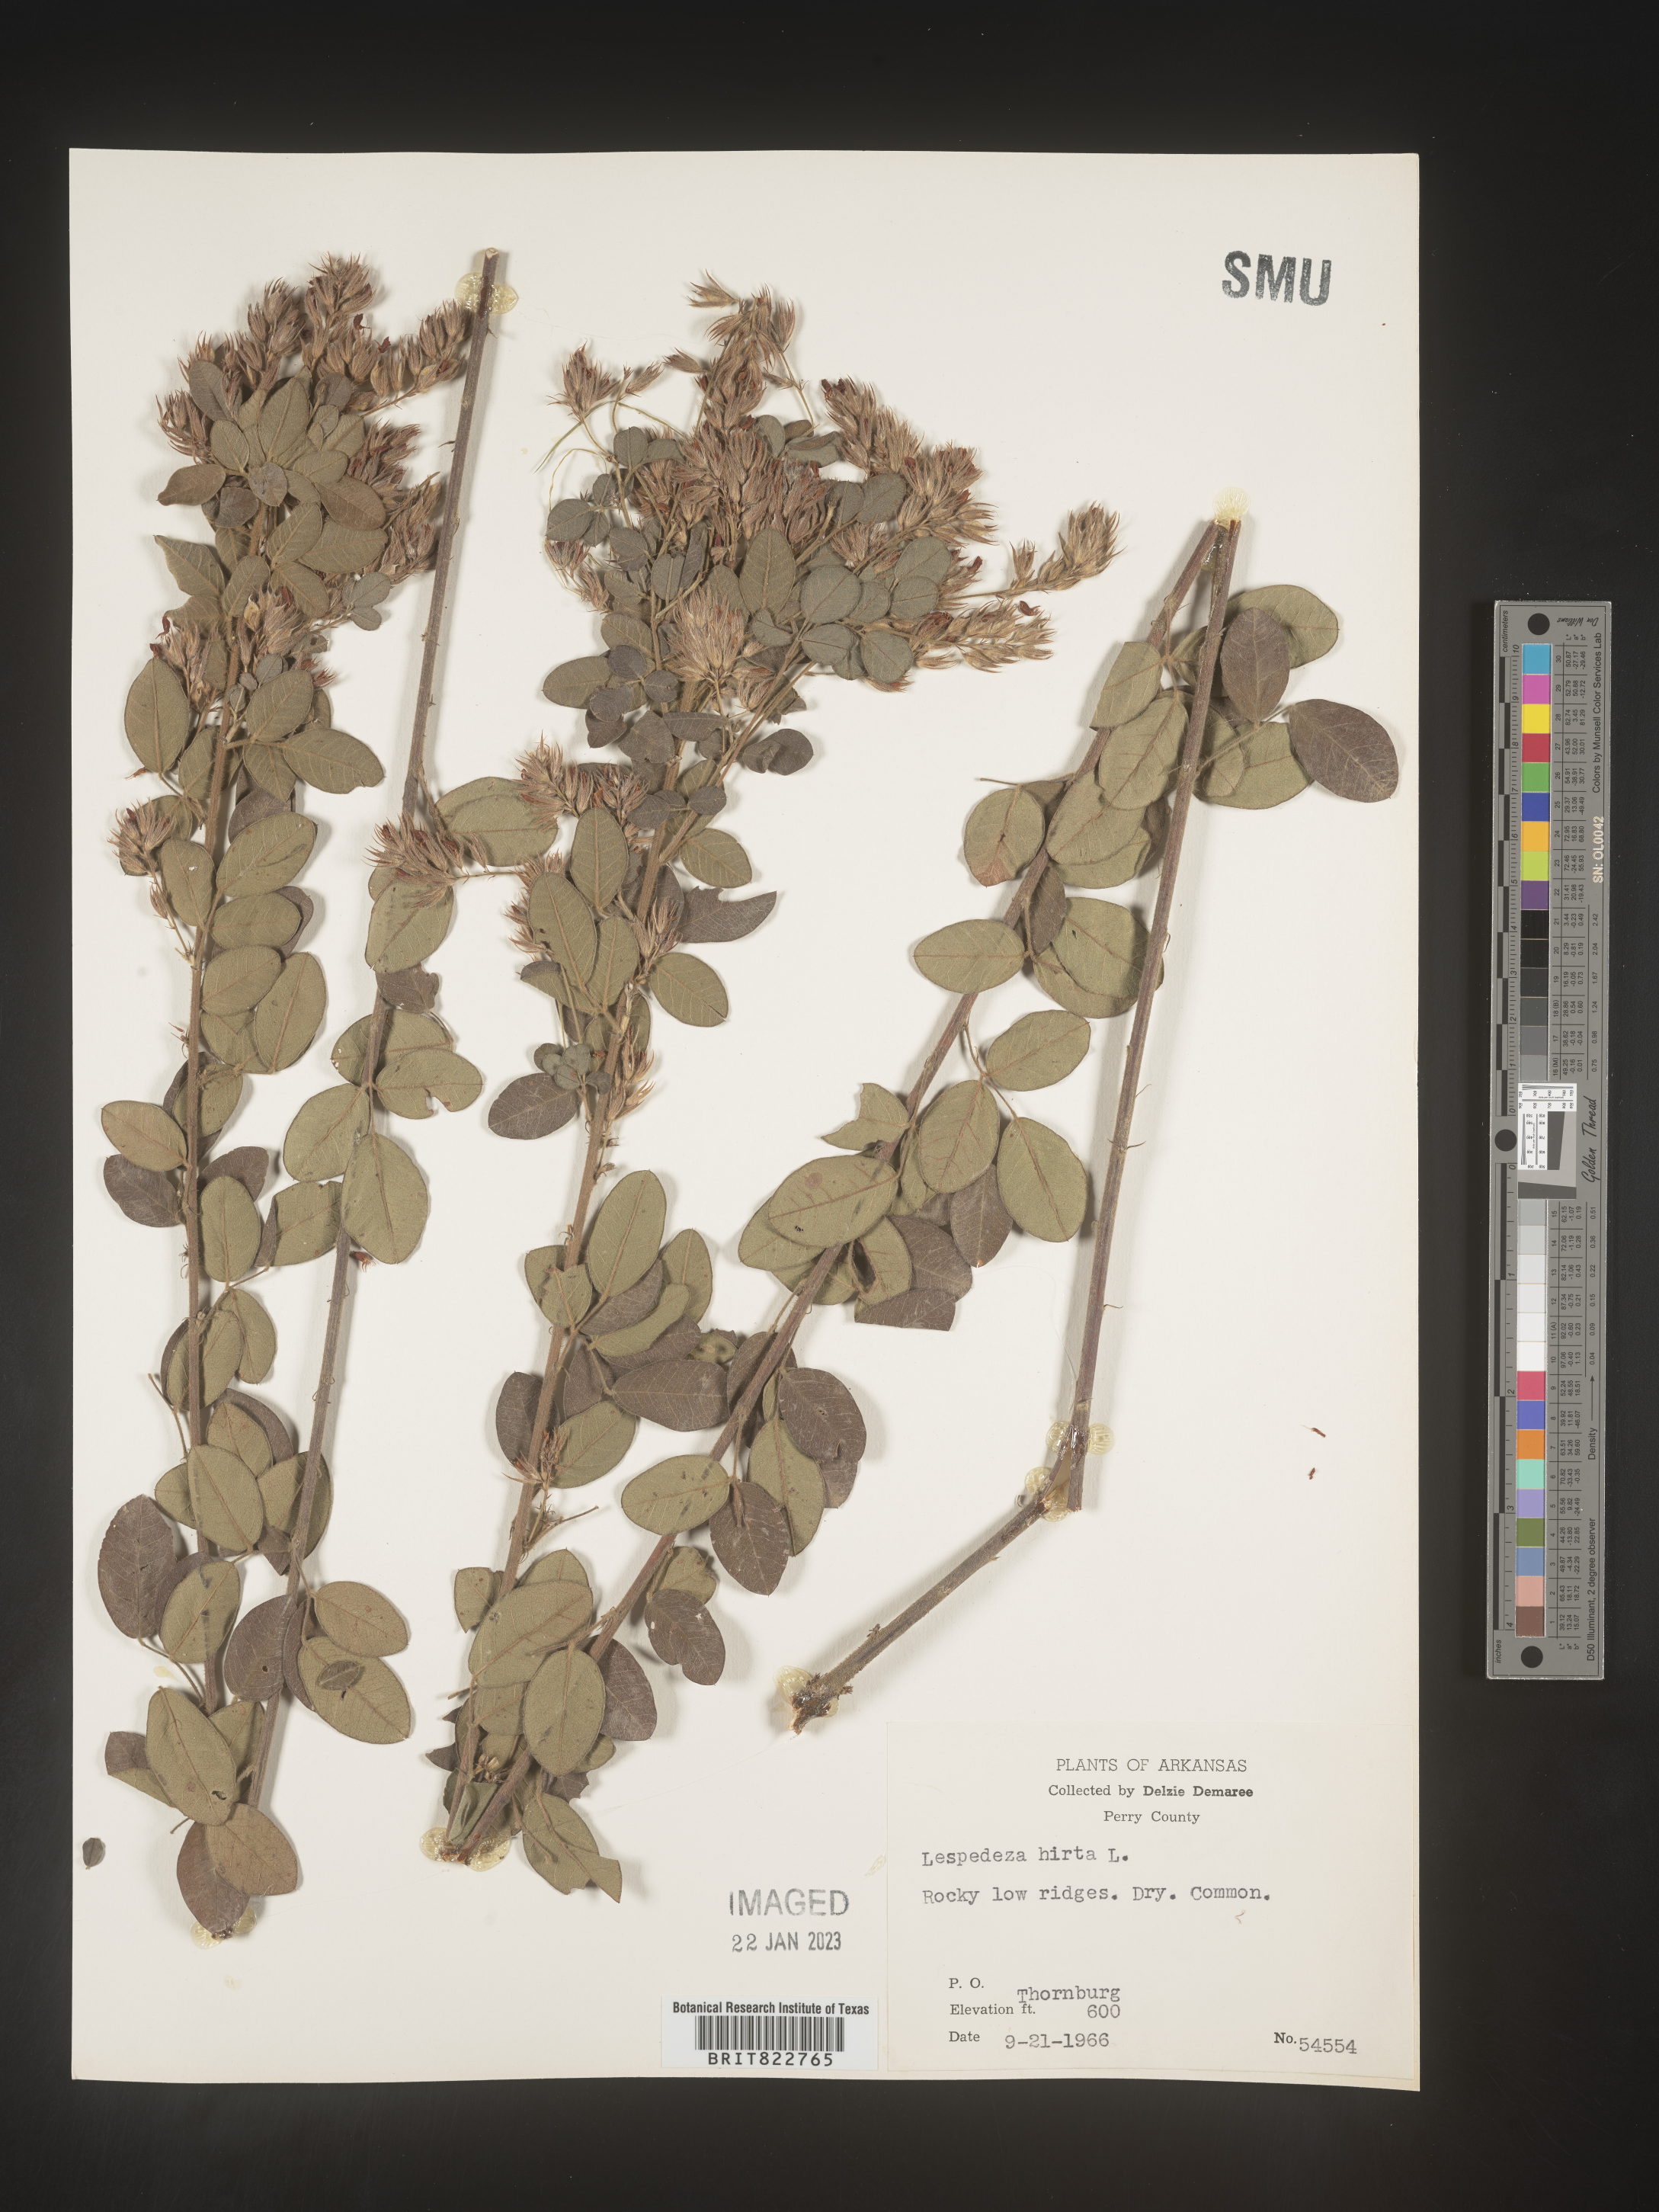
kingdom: Plantae
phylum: Tracheophyta
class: Magnoliopsida
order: Fabales
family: Fabaceae
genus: Lespedeza
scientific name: Lespedeza hirta
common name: Hairy lespedeza
